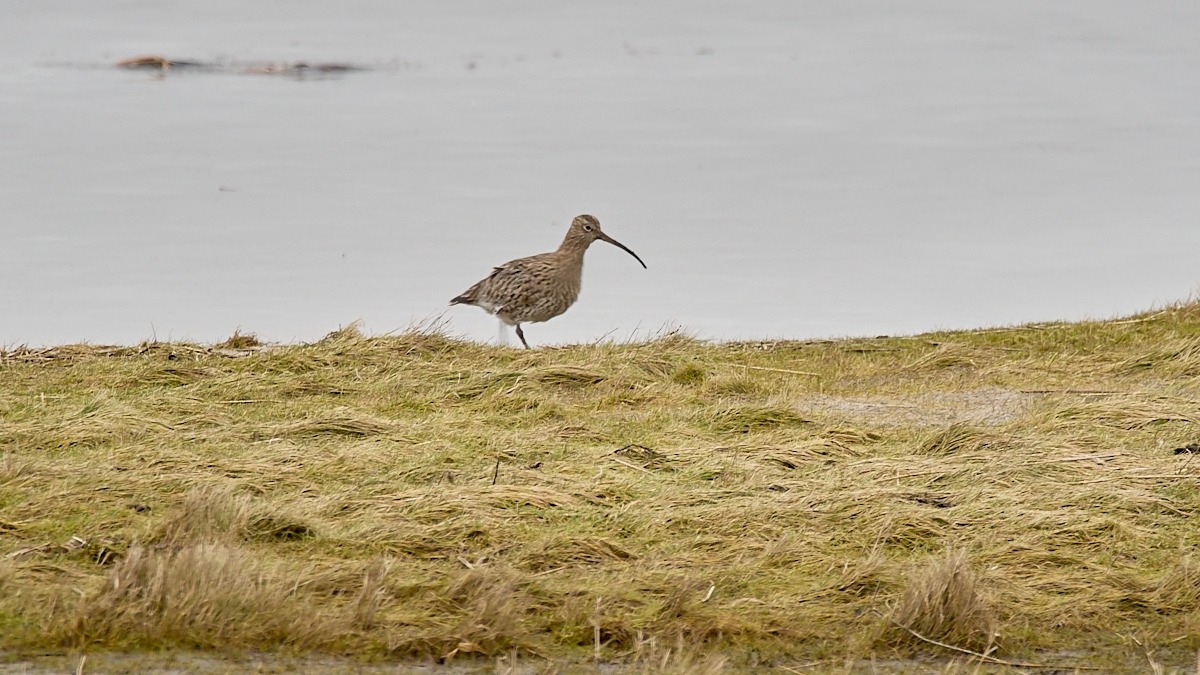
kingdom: Animalia
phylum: Chordata
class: Aves
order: Charadriiformes
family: Scolopacidae
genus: Numenius
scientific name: Numenius arquata
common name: Storspove
